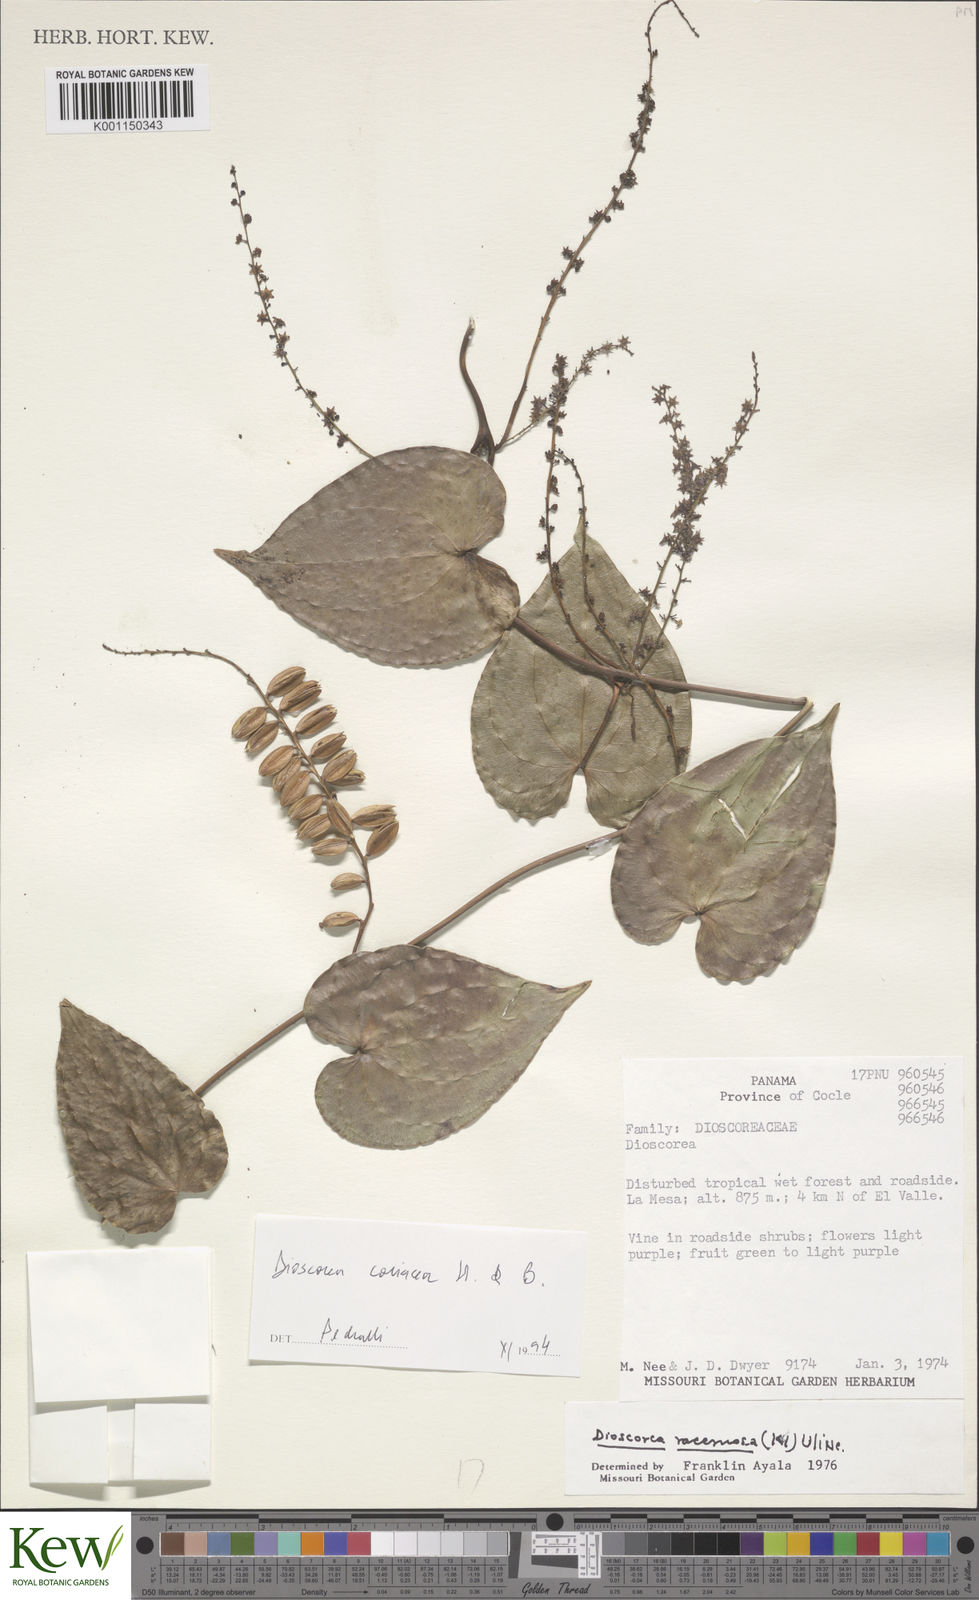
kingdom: Plantae
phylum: Tracheophyta
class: Liliopsida
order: Dioscoreales
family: Dioscoreaceae
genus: Dioscorea
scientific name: Dioscorea
